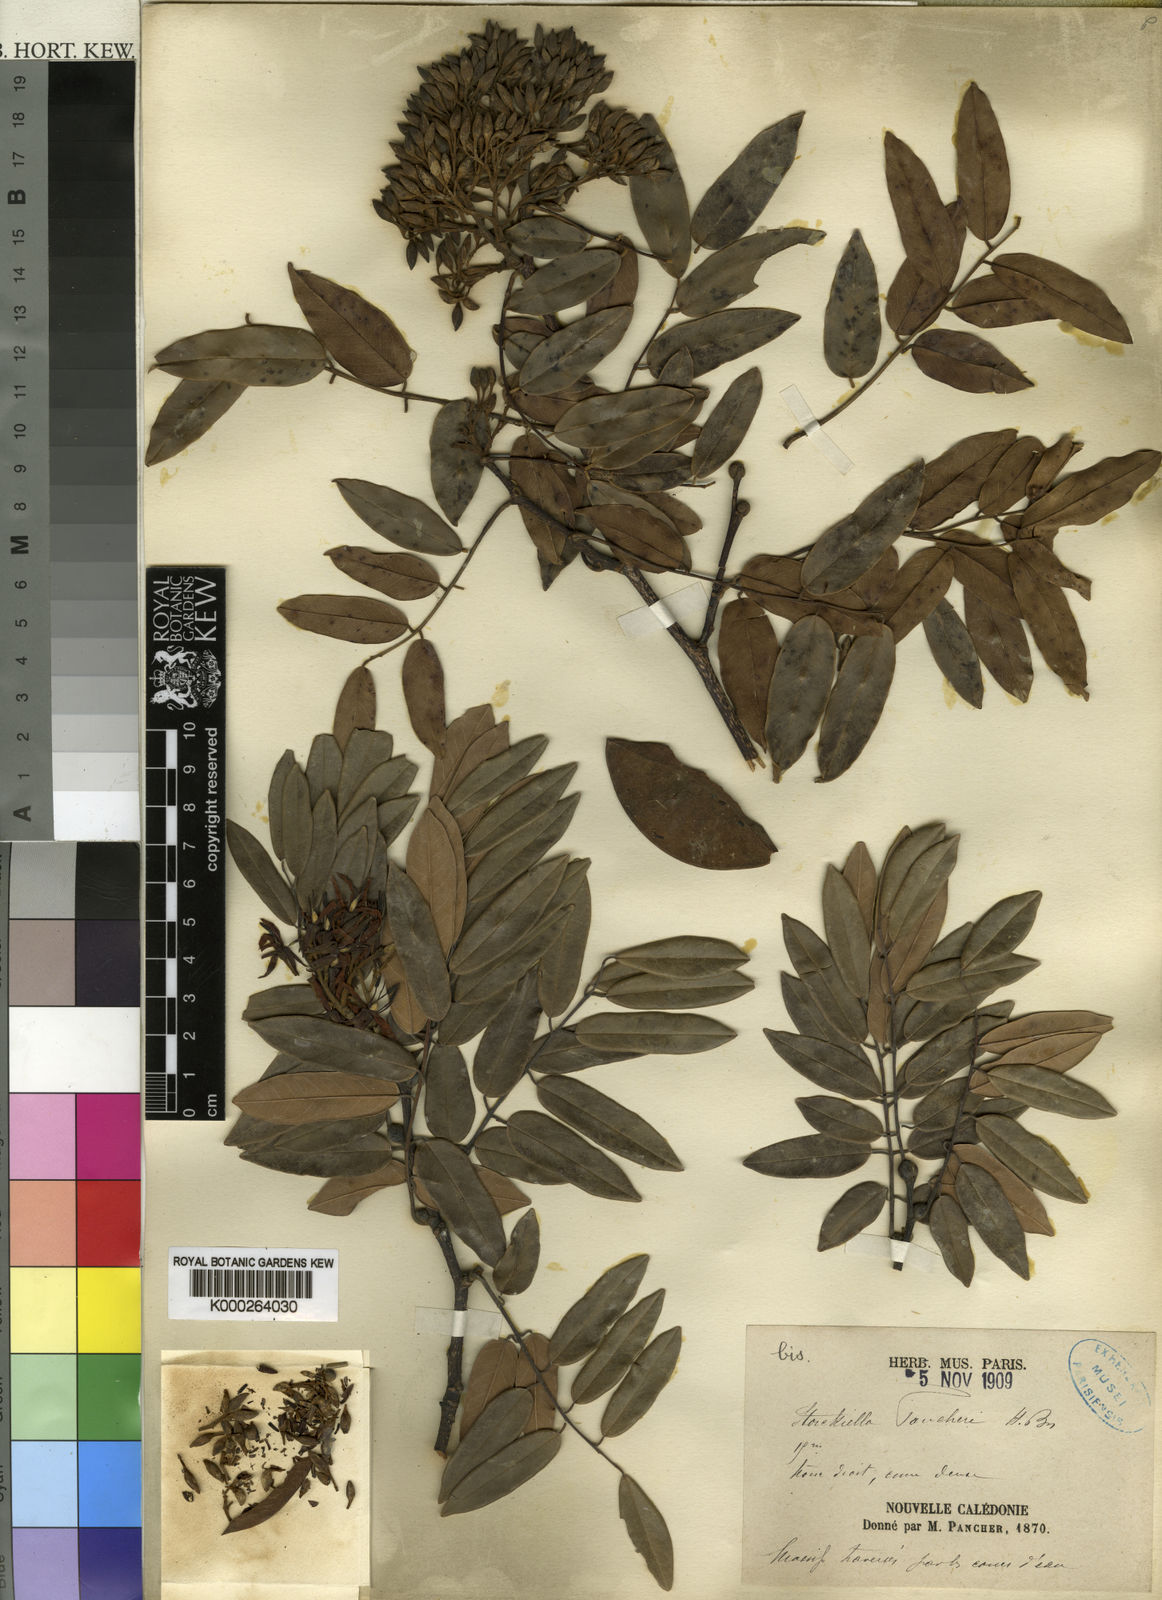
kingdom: Plantae
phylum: Tracheophyta
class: Magnoliopsida
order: Fabales
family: Fabaceae
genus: Storckiella
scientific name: Storckiella
